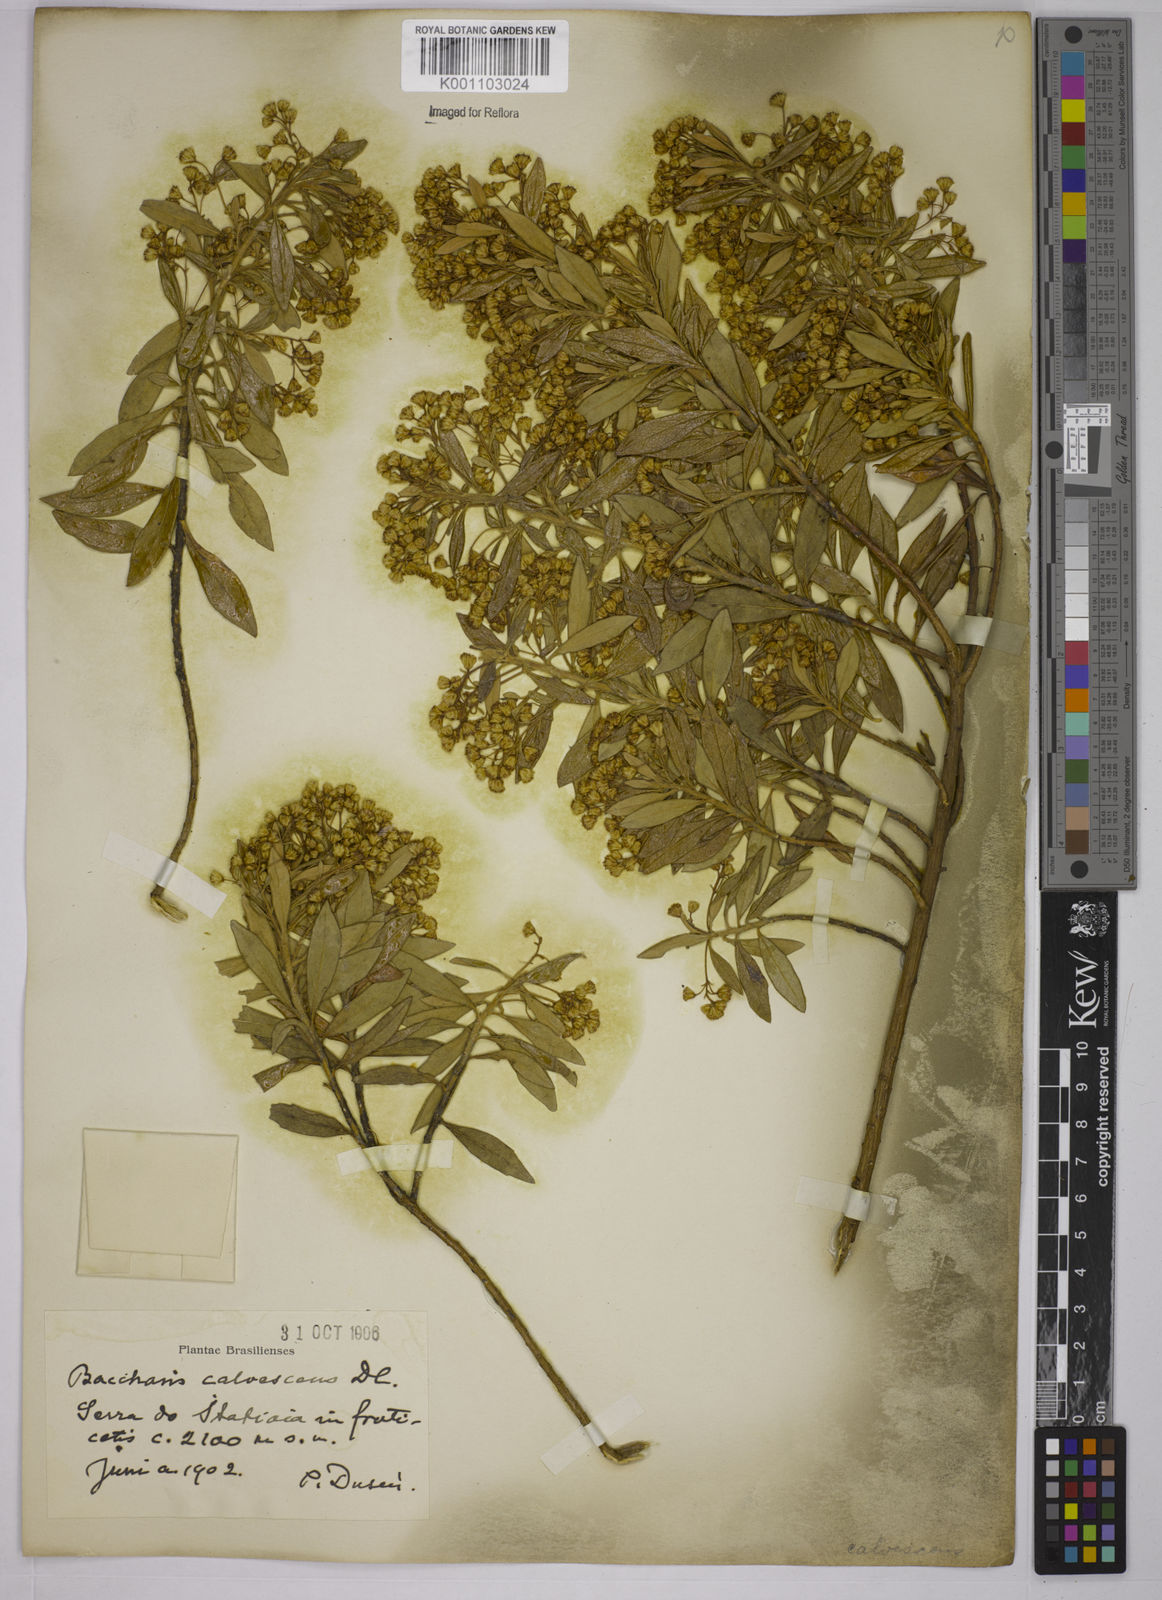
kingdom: Plantae
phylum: Tracheophyta
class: Magnoliopsida
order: Asterales
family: Asteraceae
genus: Baccharis
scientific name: Baccharis calvescens
